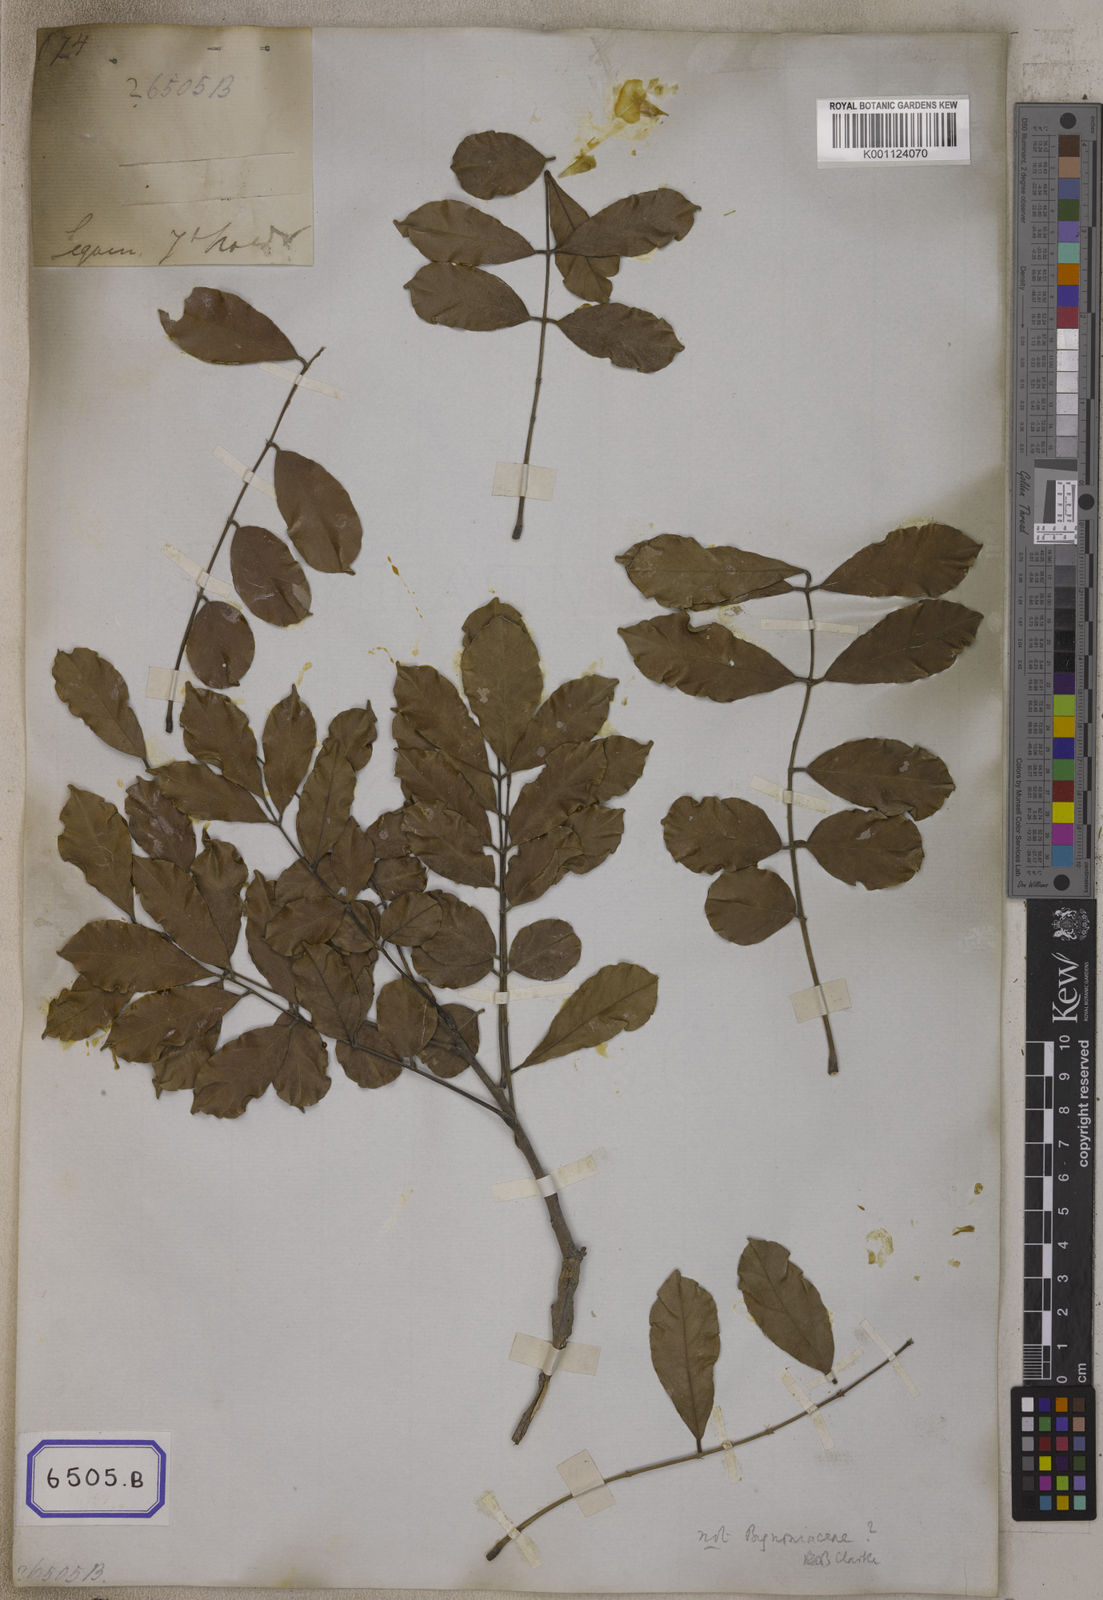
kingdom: Plantae
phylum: Tracheophyta
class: Magnoliopsida
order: Lamiales
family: Bignoniaceae
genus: Bignonia
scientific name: Bignonia
